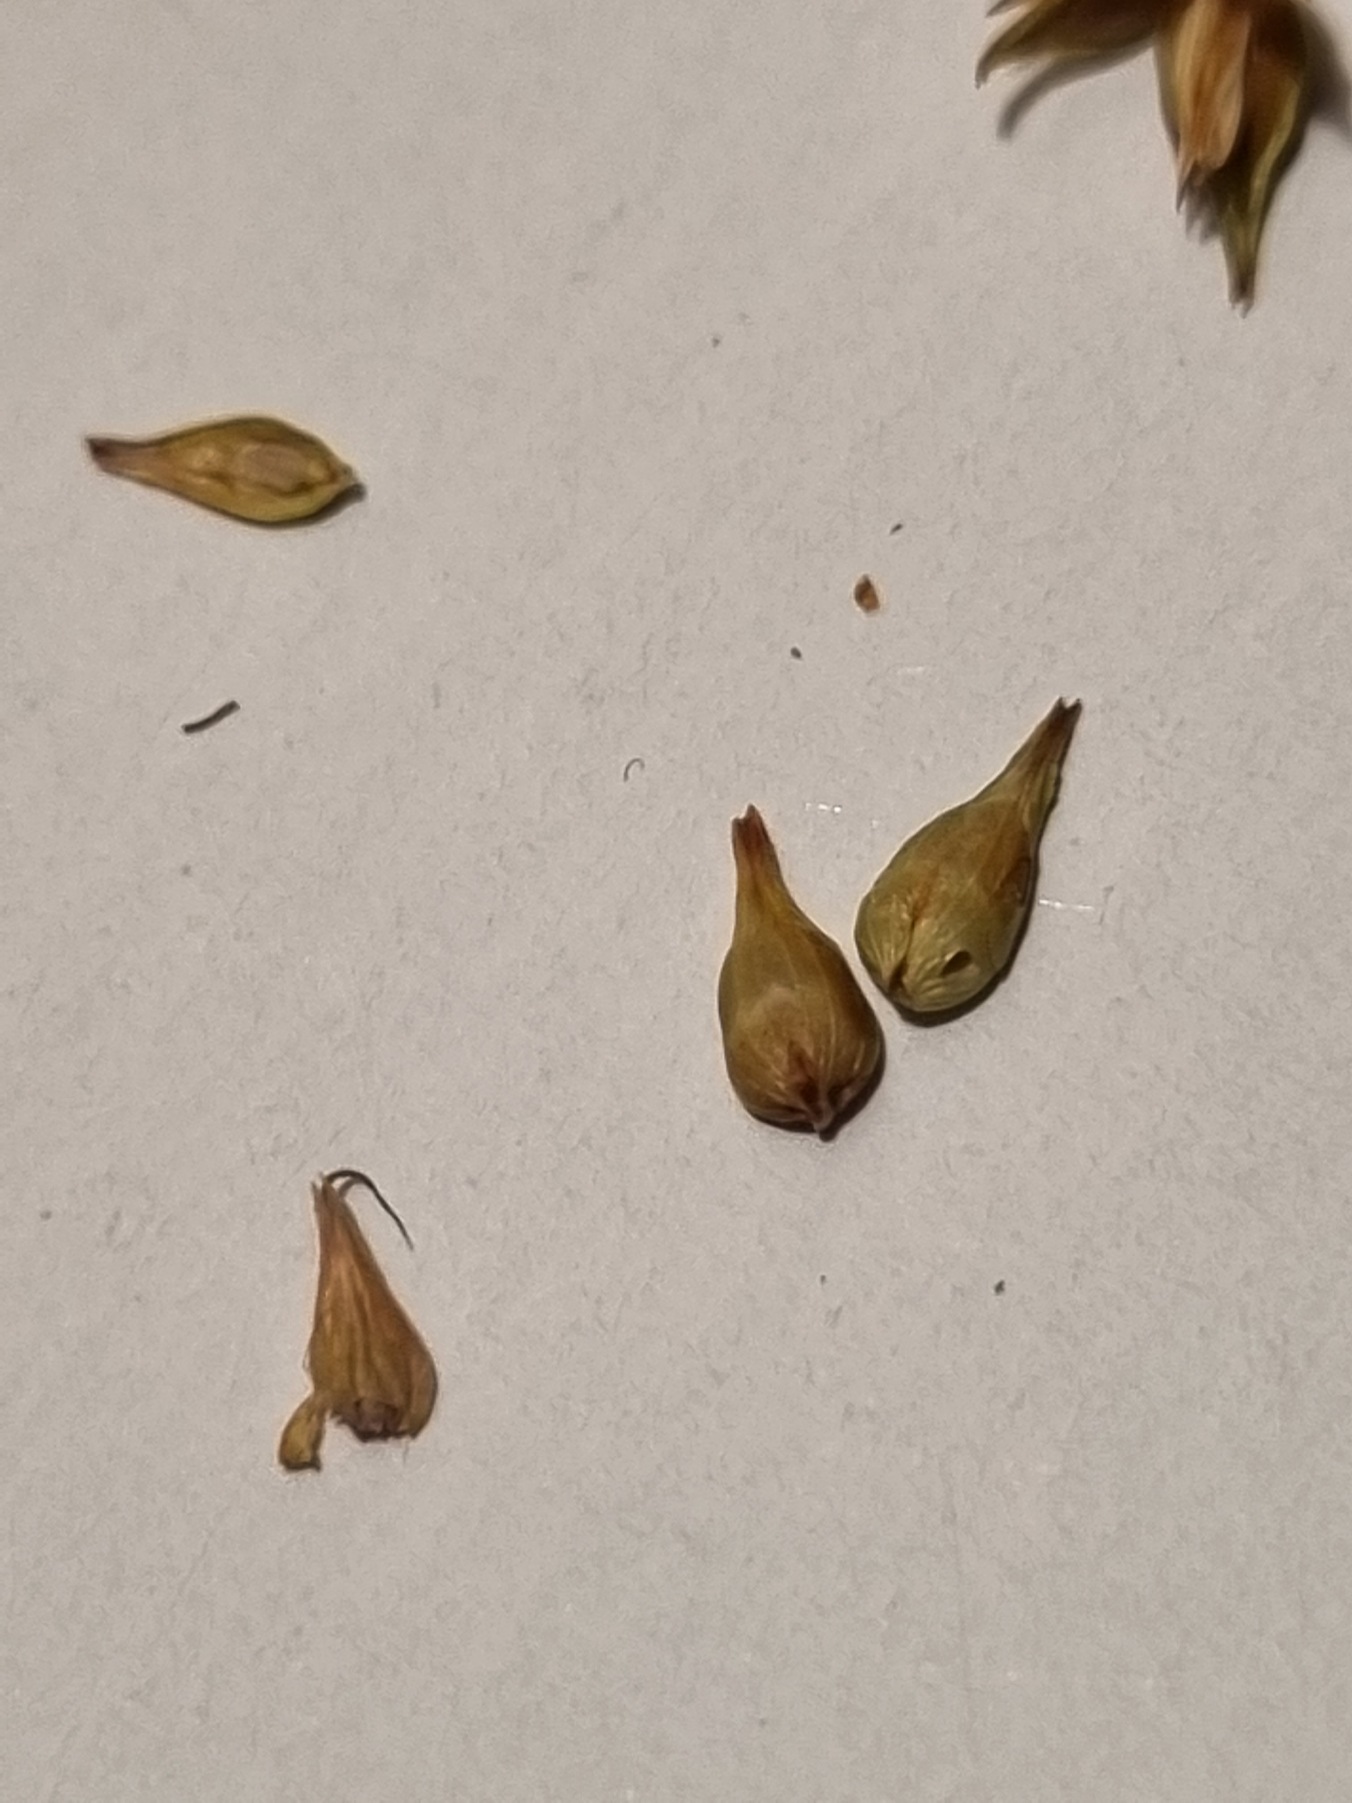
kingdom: Plantae
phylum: Tracheophyta
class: Liliopsida
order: Poales
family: Cyperaceae
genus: Carex
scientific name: Carex spicata
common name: Spidskapslet star
